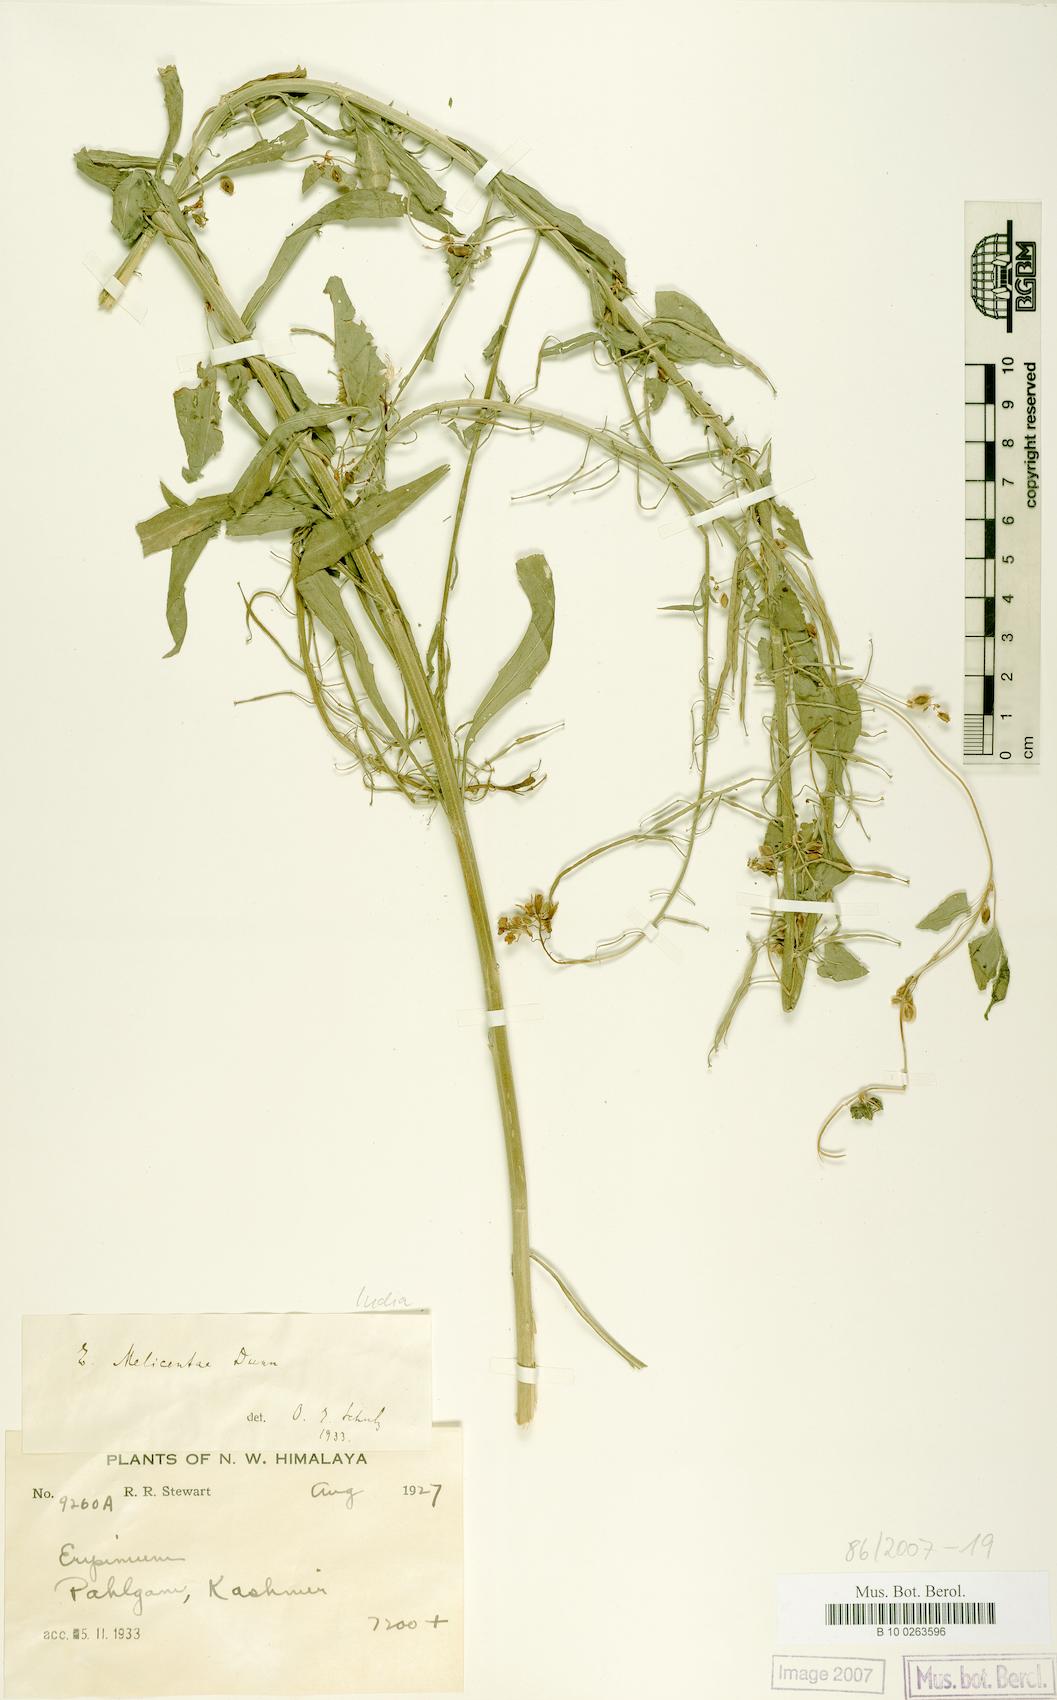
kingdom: Plantae
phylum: Tracheophyta
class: Magnoliopsida
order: Brassicales
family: Brassicaceae
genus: Erysimum
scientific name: Erysimum canescens
